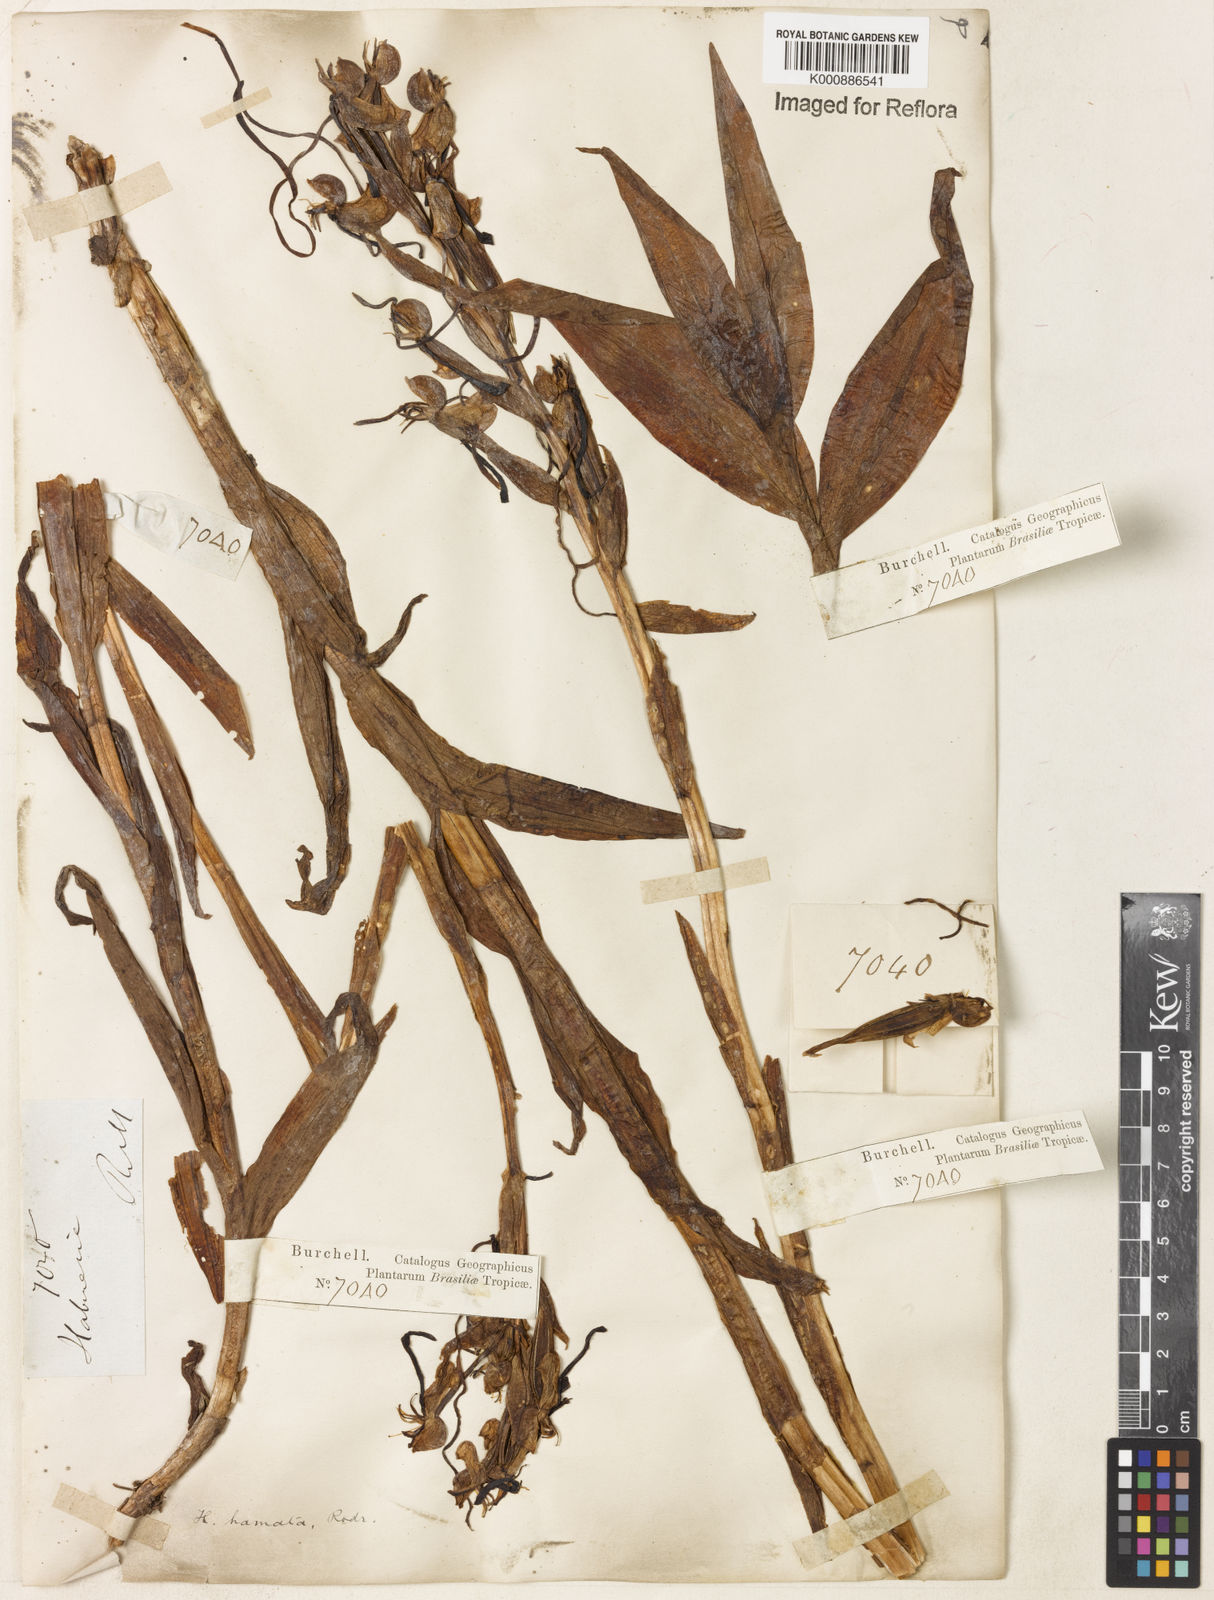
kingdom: Plantae
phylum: Tracheophyta
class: Liliopsida
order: Asparagales
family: Orchidaceae
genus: Habenaria
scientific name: Habenaria hamata
